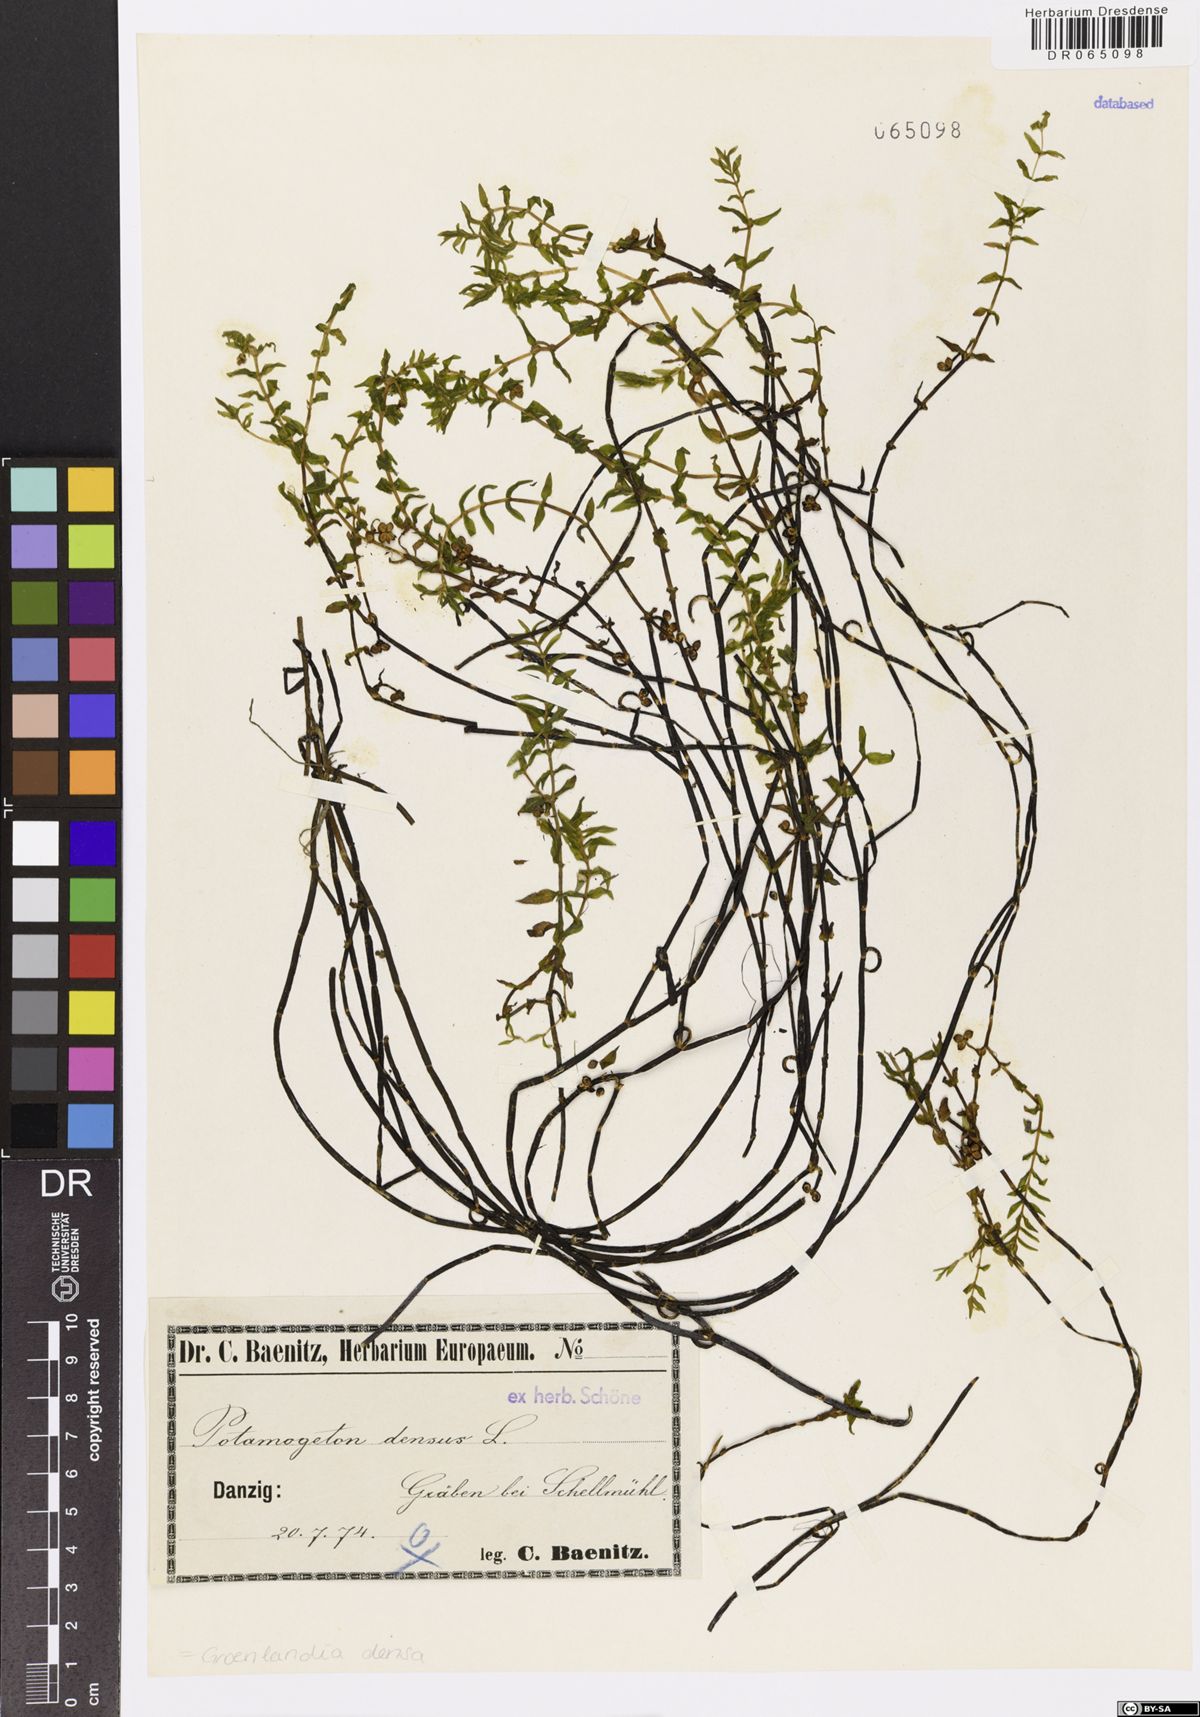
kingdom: Plantae
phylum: Tracheophyta
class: Liliopsida
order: Alismatales
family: Potamogetonaceae
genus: Groenlandia
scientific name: Groenlandia densa
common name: Opposite-leaved pondweed
